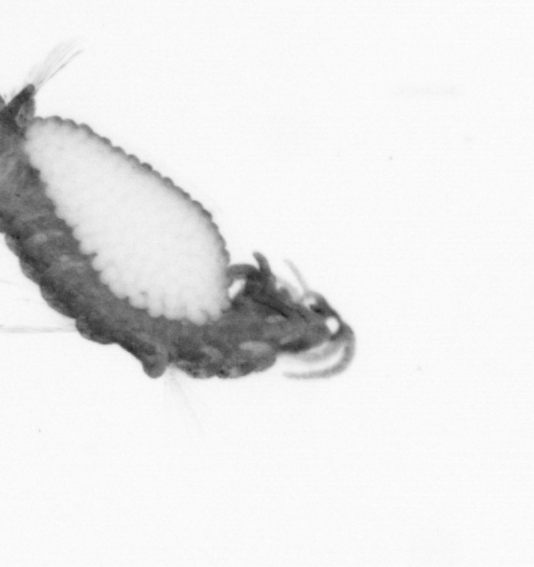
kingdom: Animalia
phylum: Annelida
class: Polychaeta
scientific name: Polychaeta
